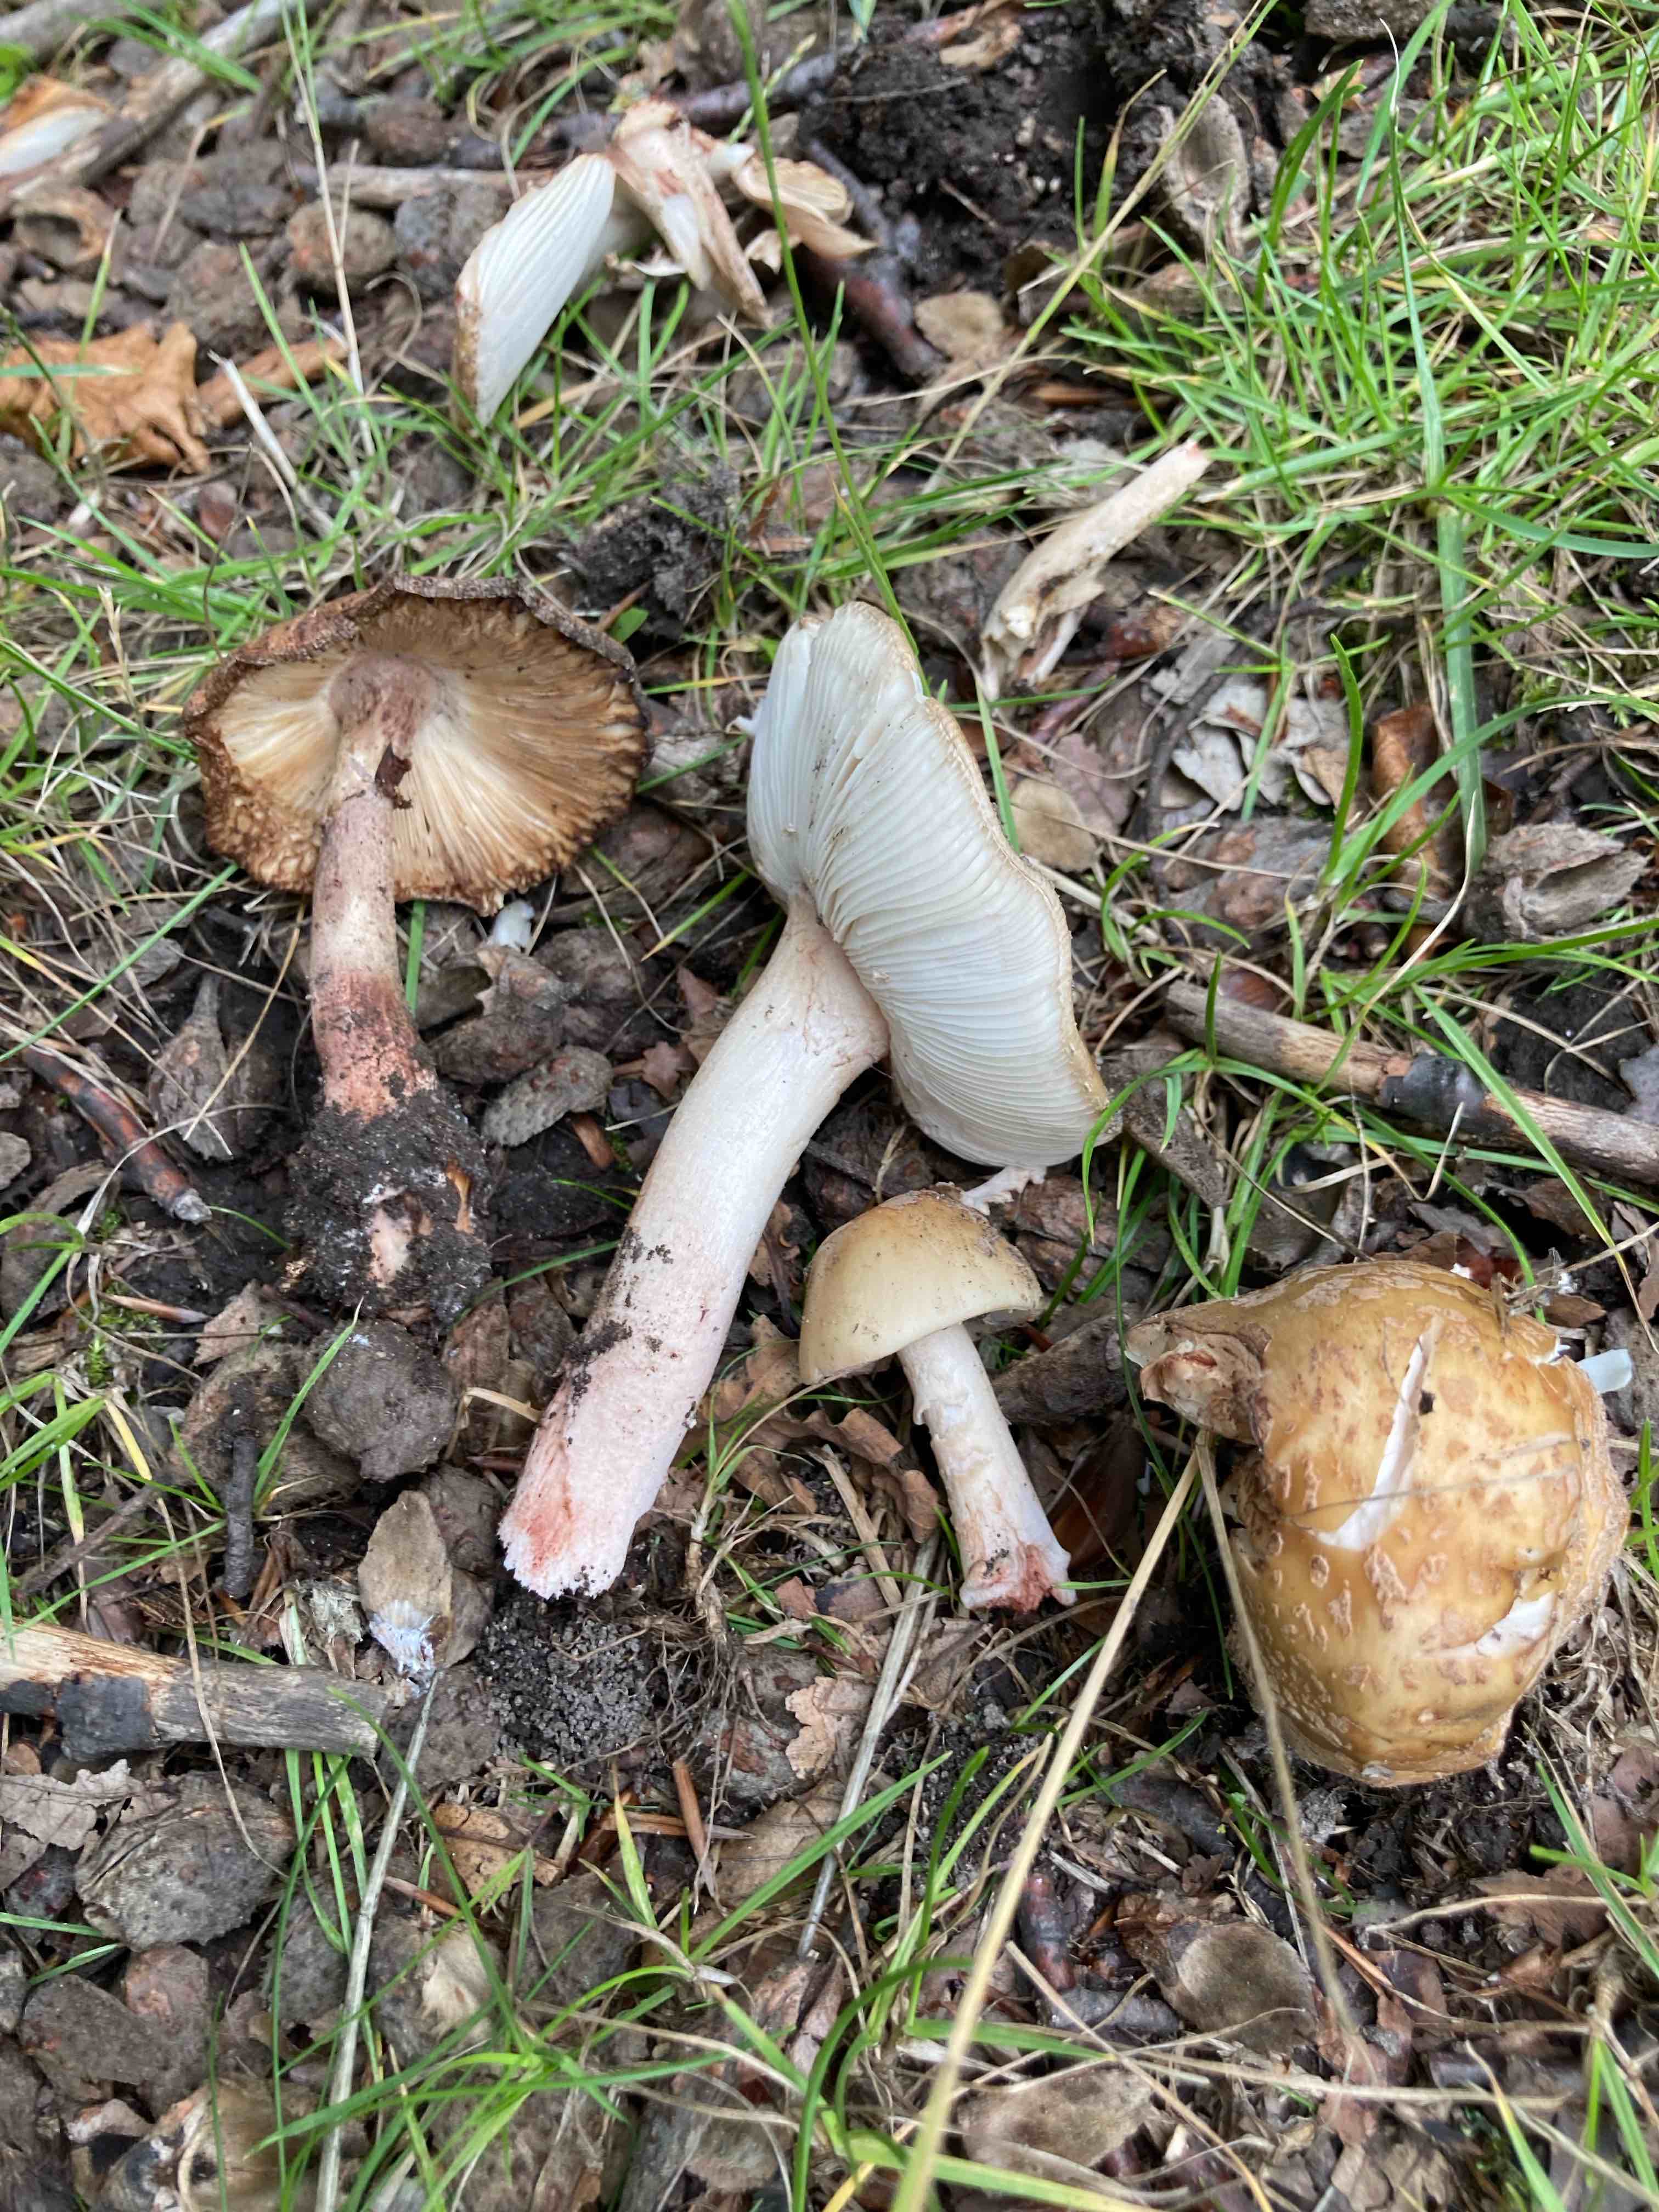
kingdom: Fungi
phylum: Basidiomycota
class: Agaricomycetes
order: Agaricales
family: Amanitaceae
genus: Amanita
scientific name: Amanita rubescens
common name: rødmende fluesvamp
